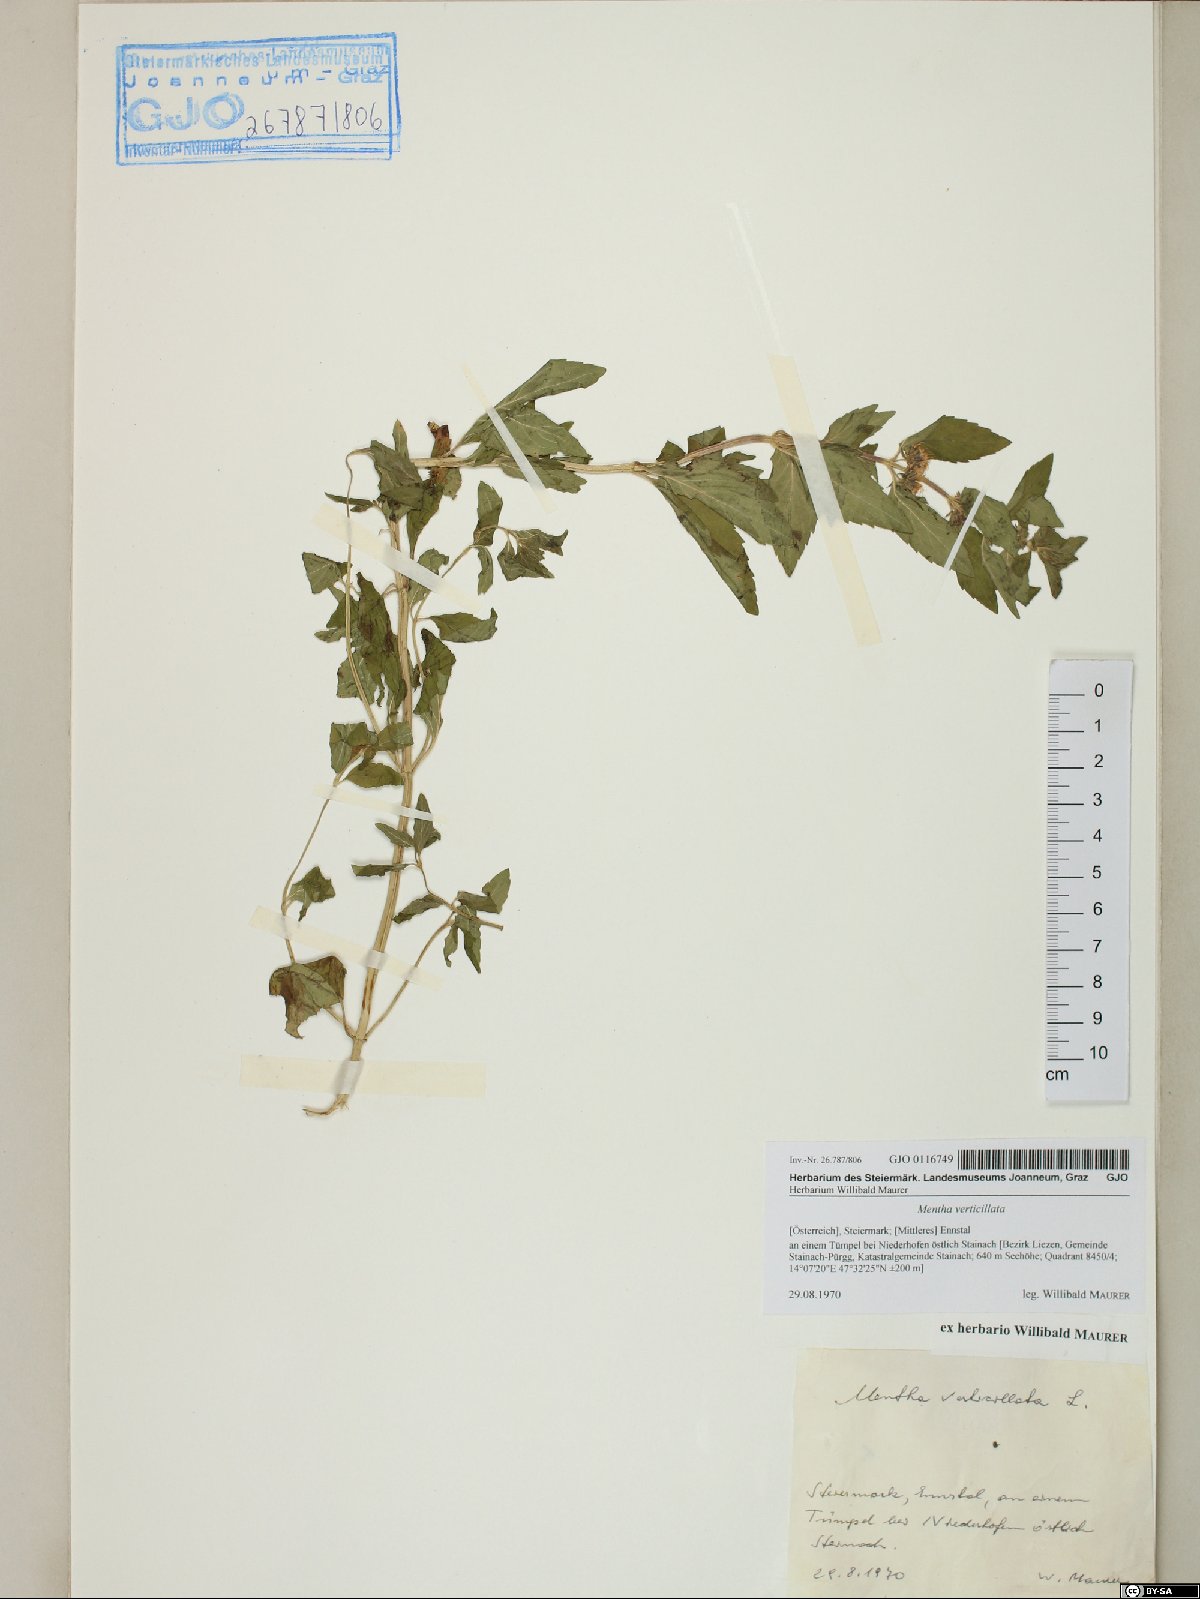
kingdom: Plantae
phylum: Tracheophyta
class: Magnoliopsida
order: Lamiales
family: Lamiaceae
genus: Mentha
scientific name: Mentha verticillata
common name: Mint
